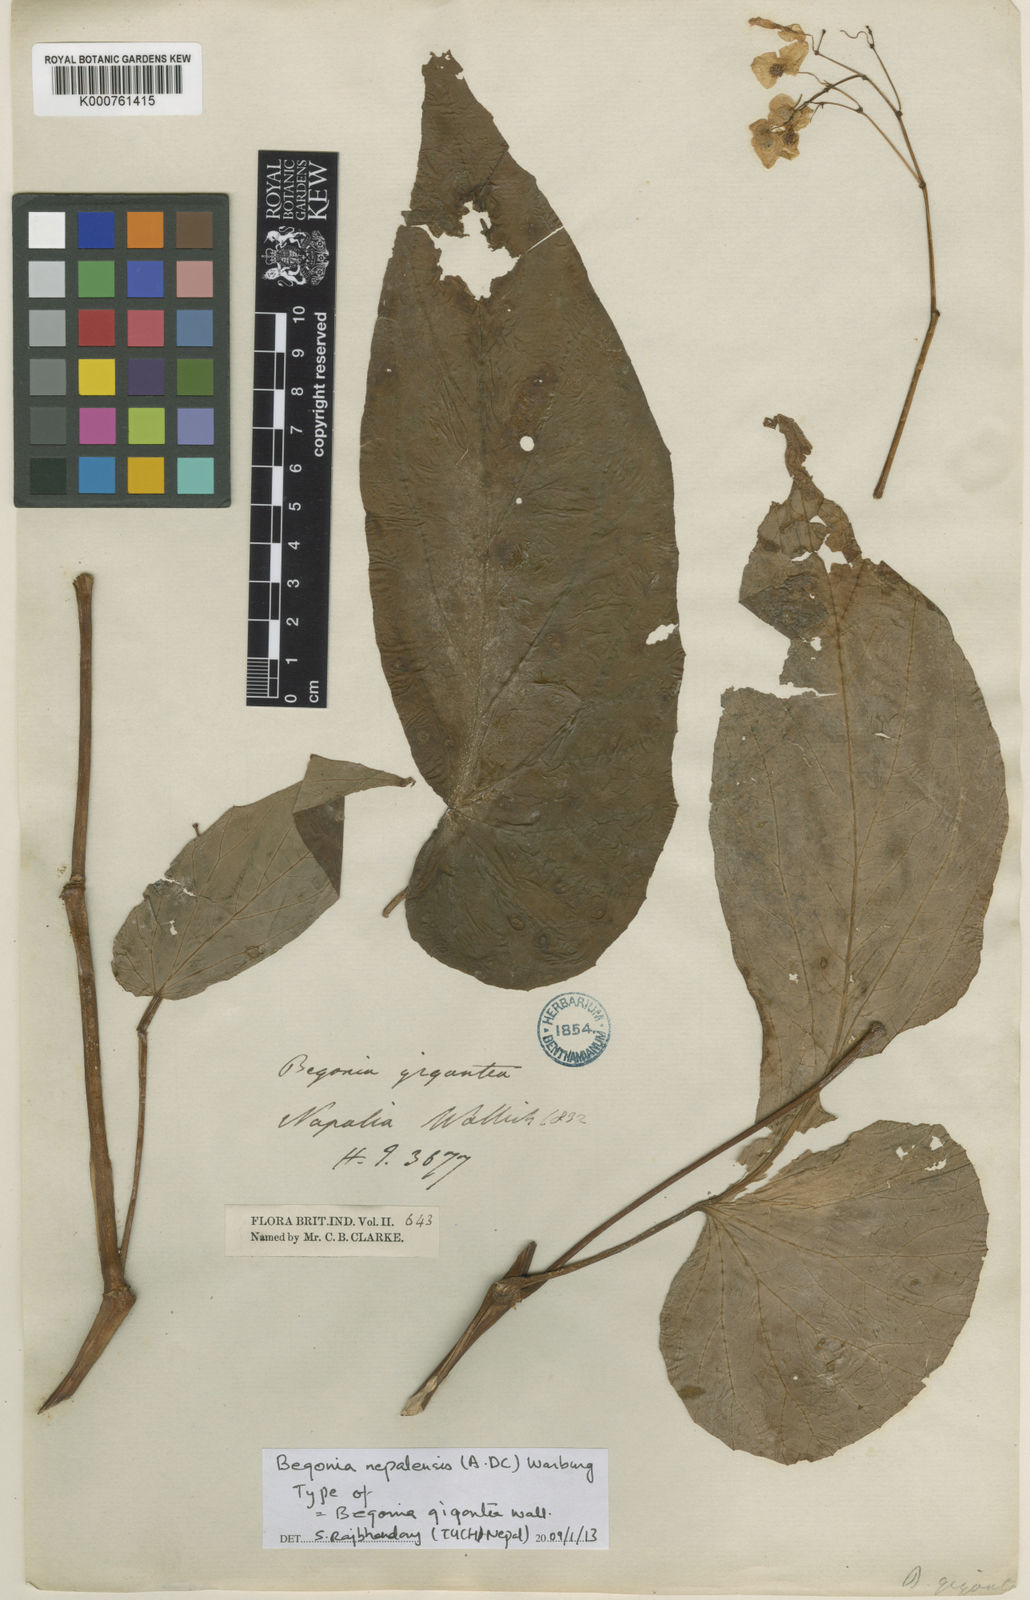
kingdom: Plantae
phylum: Tracheophyta
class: Magnoliopsida
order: Cucurbitales
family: Begoniaceae
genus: Begonia
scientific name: Begonia nepalensis
